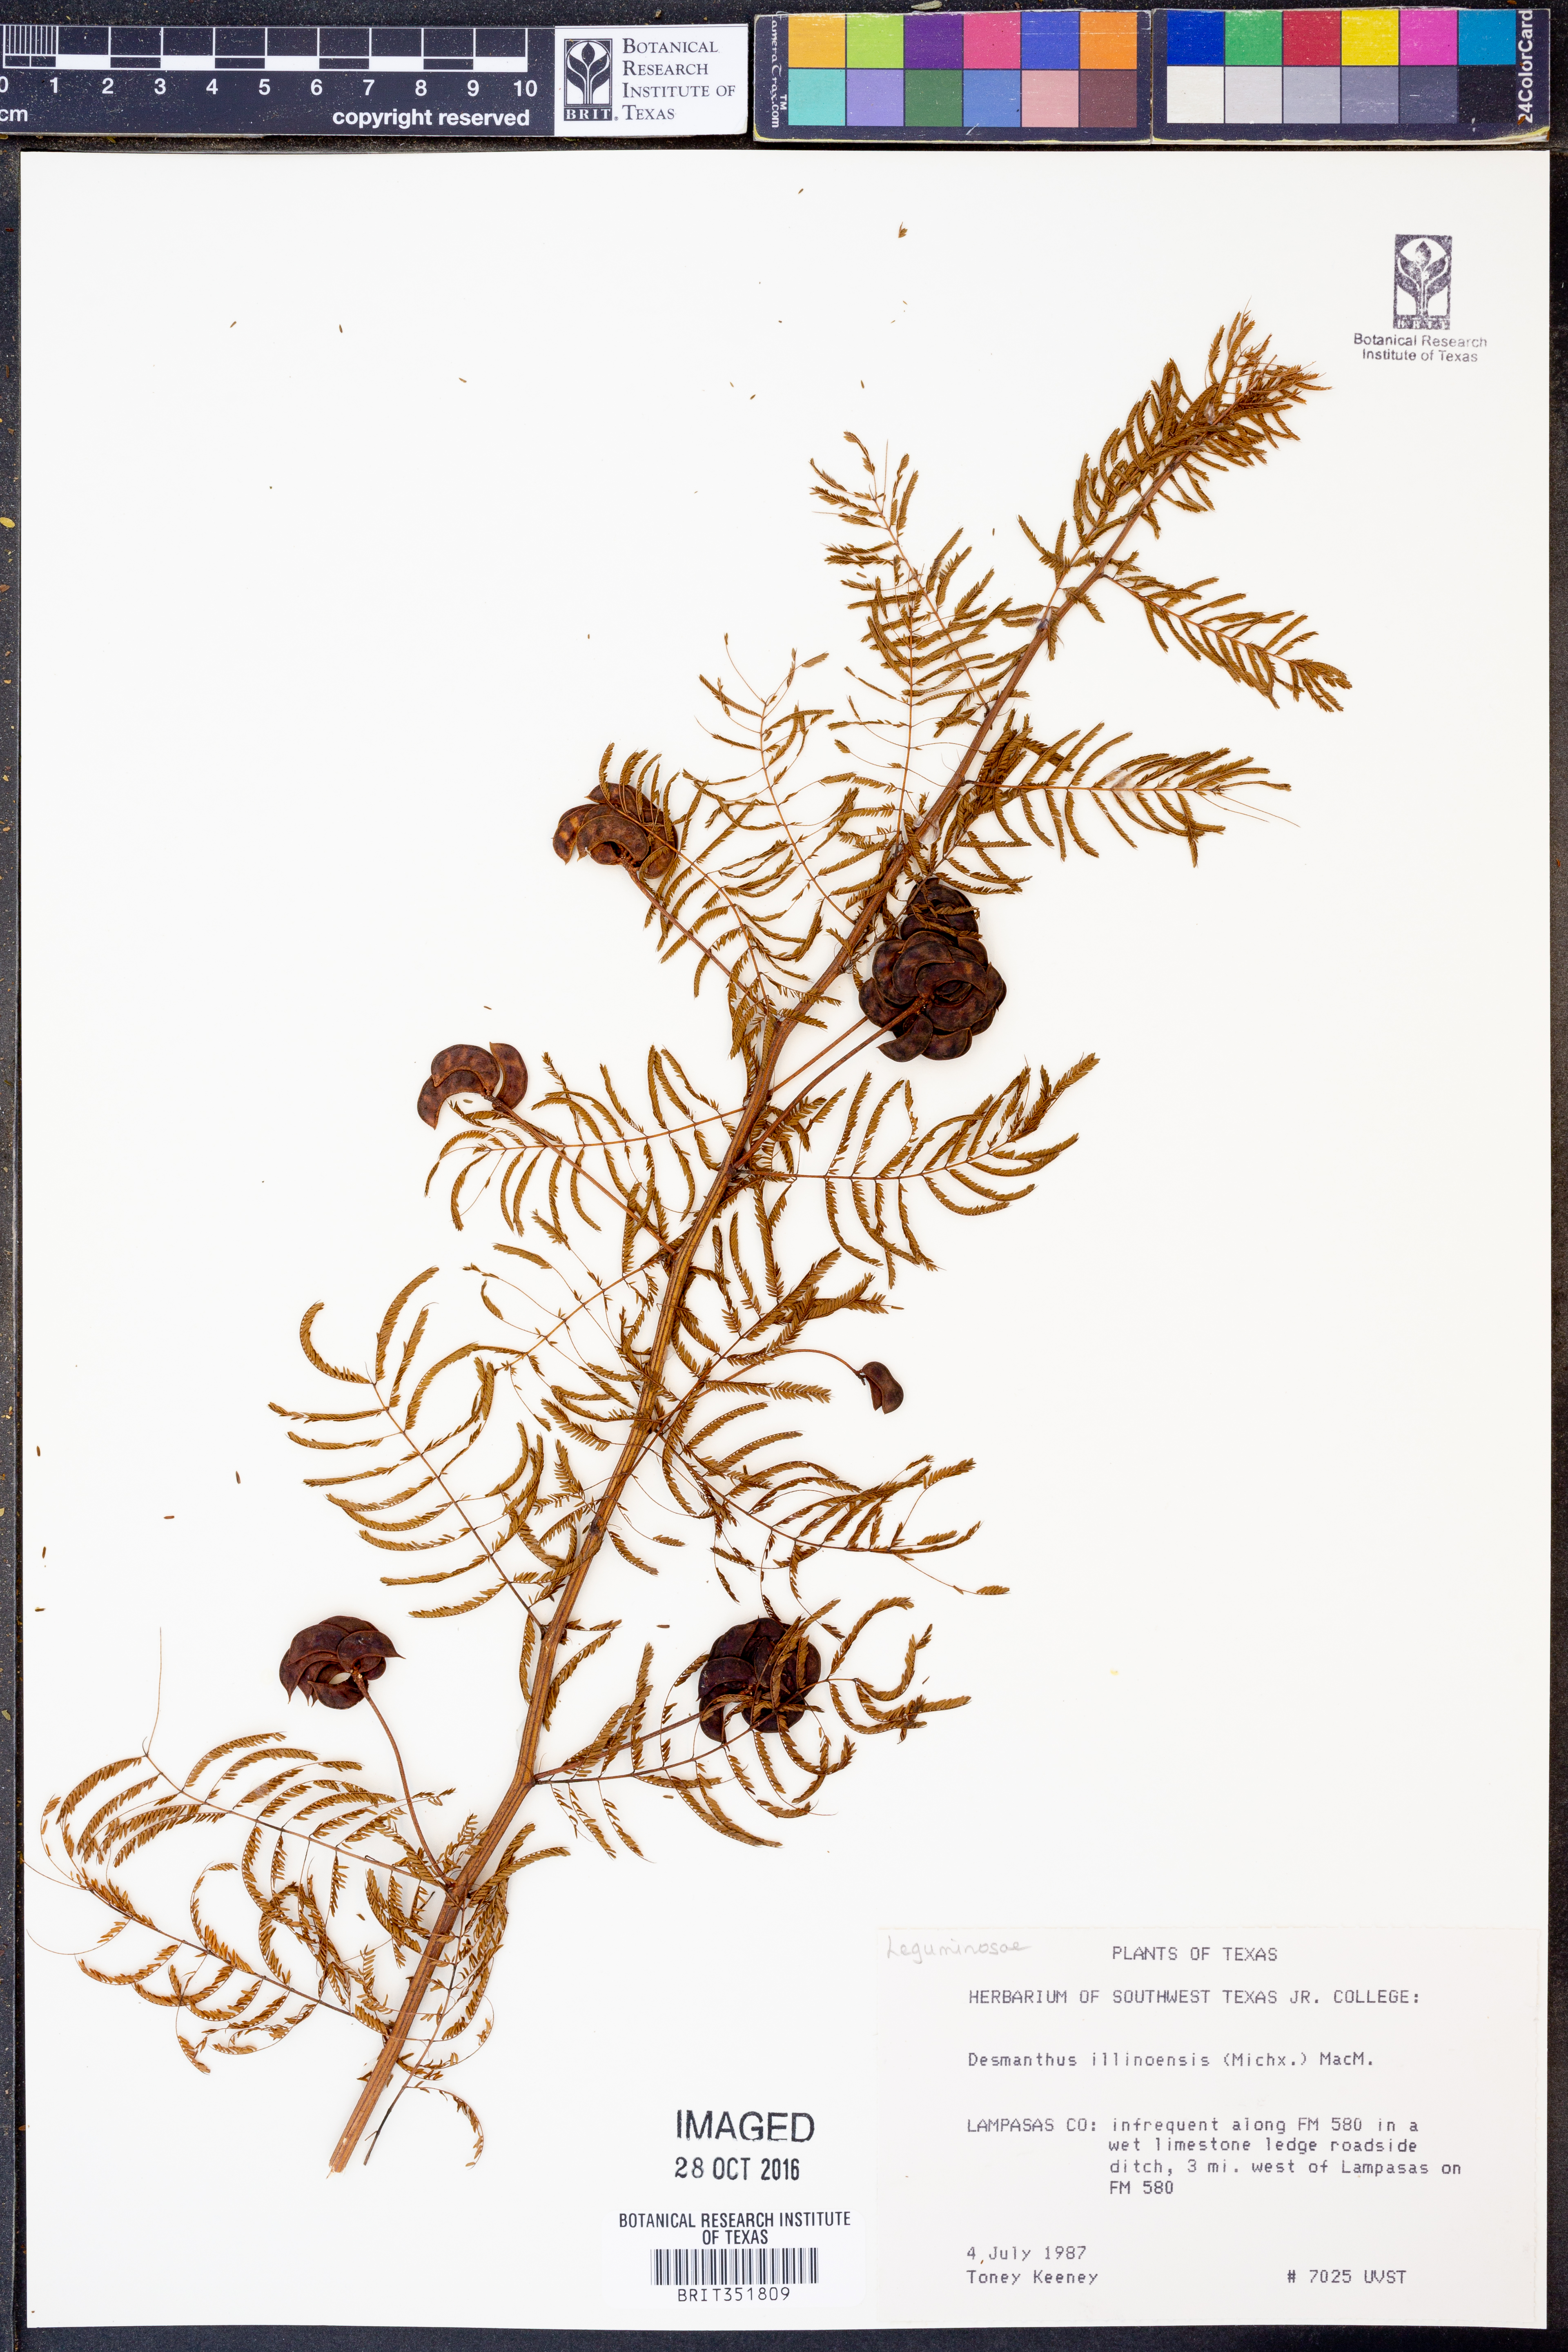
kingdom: Plantae
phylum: Tracheophyta
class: Magnoliopsida
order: Fabales
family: Fabaceae
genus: Desmanthus
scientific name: Desmanthus illinoensis
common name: Illinois bundle-flower
